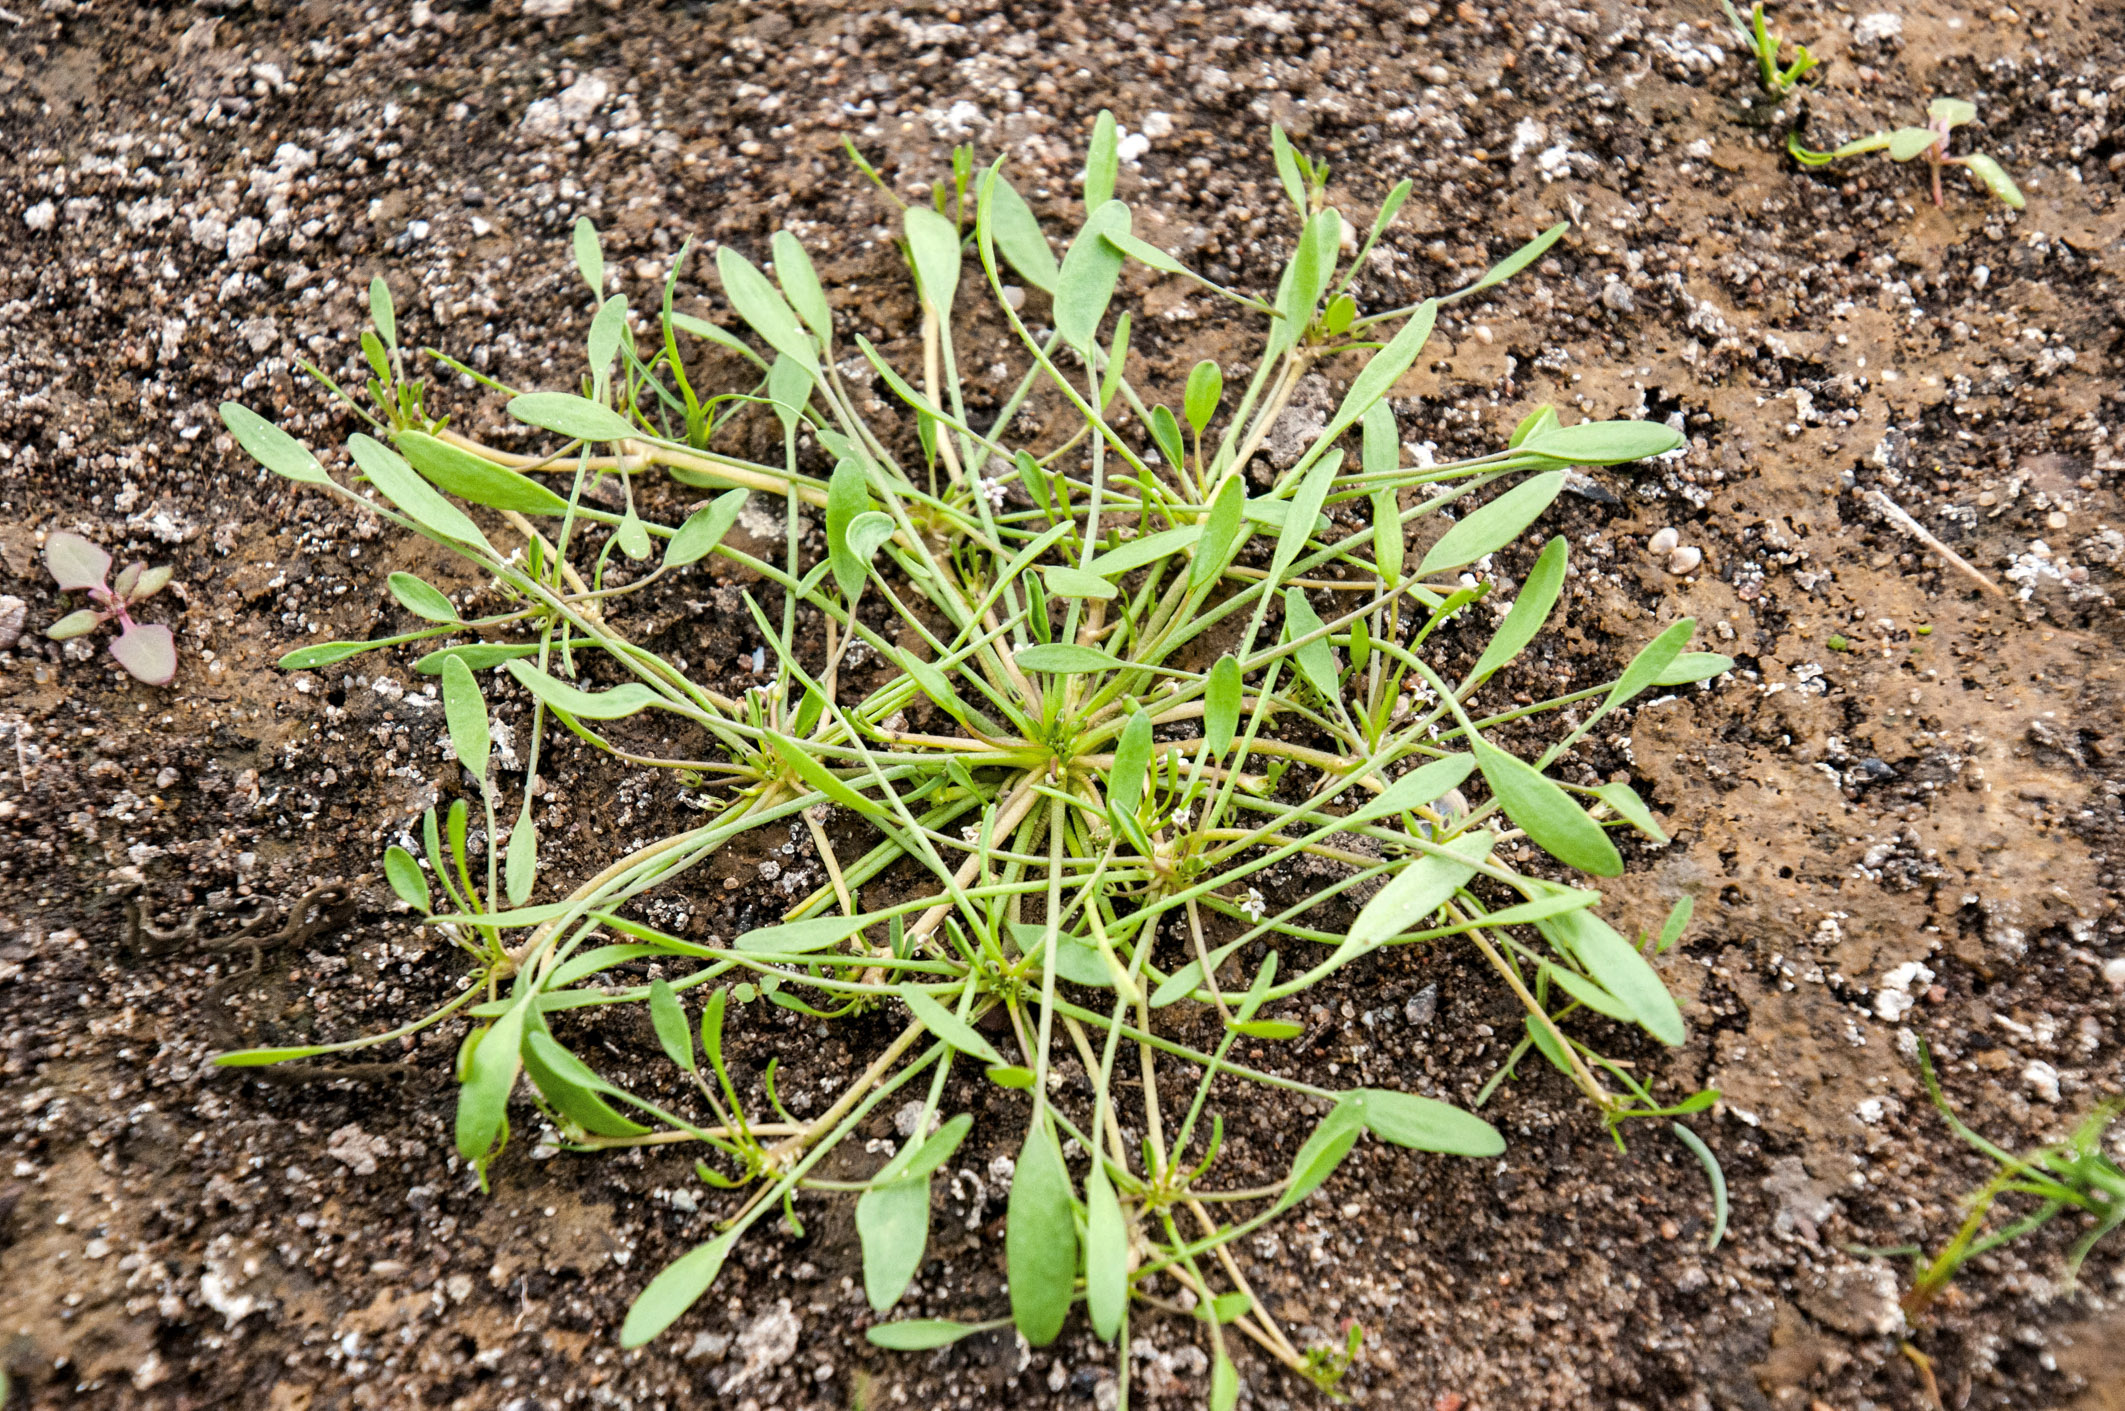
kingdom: Plantae
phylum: Tracheophyta
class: Magnoliopsida
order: Lamiales
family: Scrophulariaceae
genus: Limosella
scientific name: Limosella aquatica
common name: Mudwort
